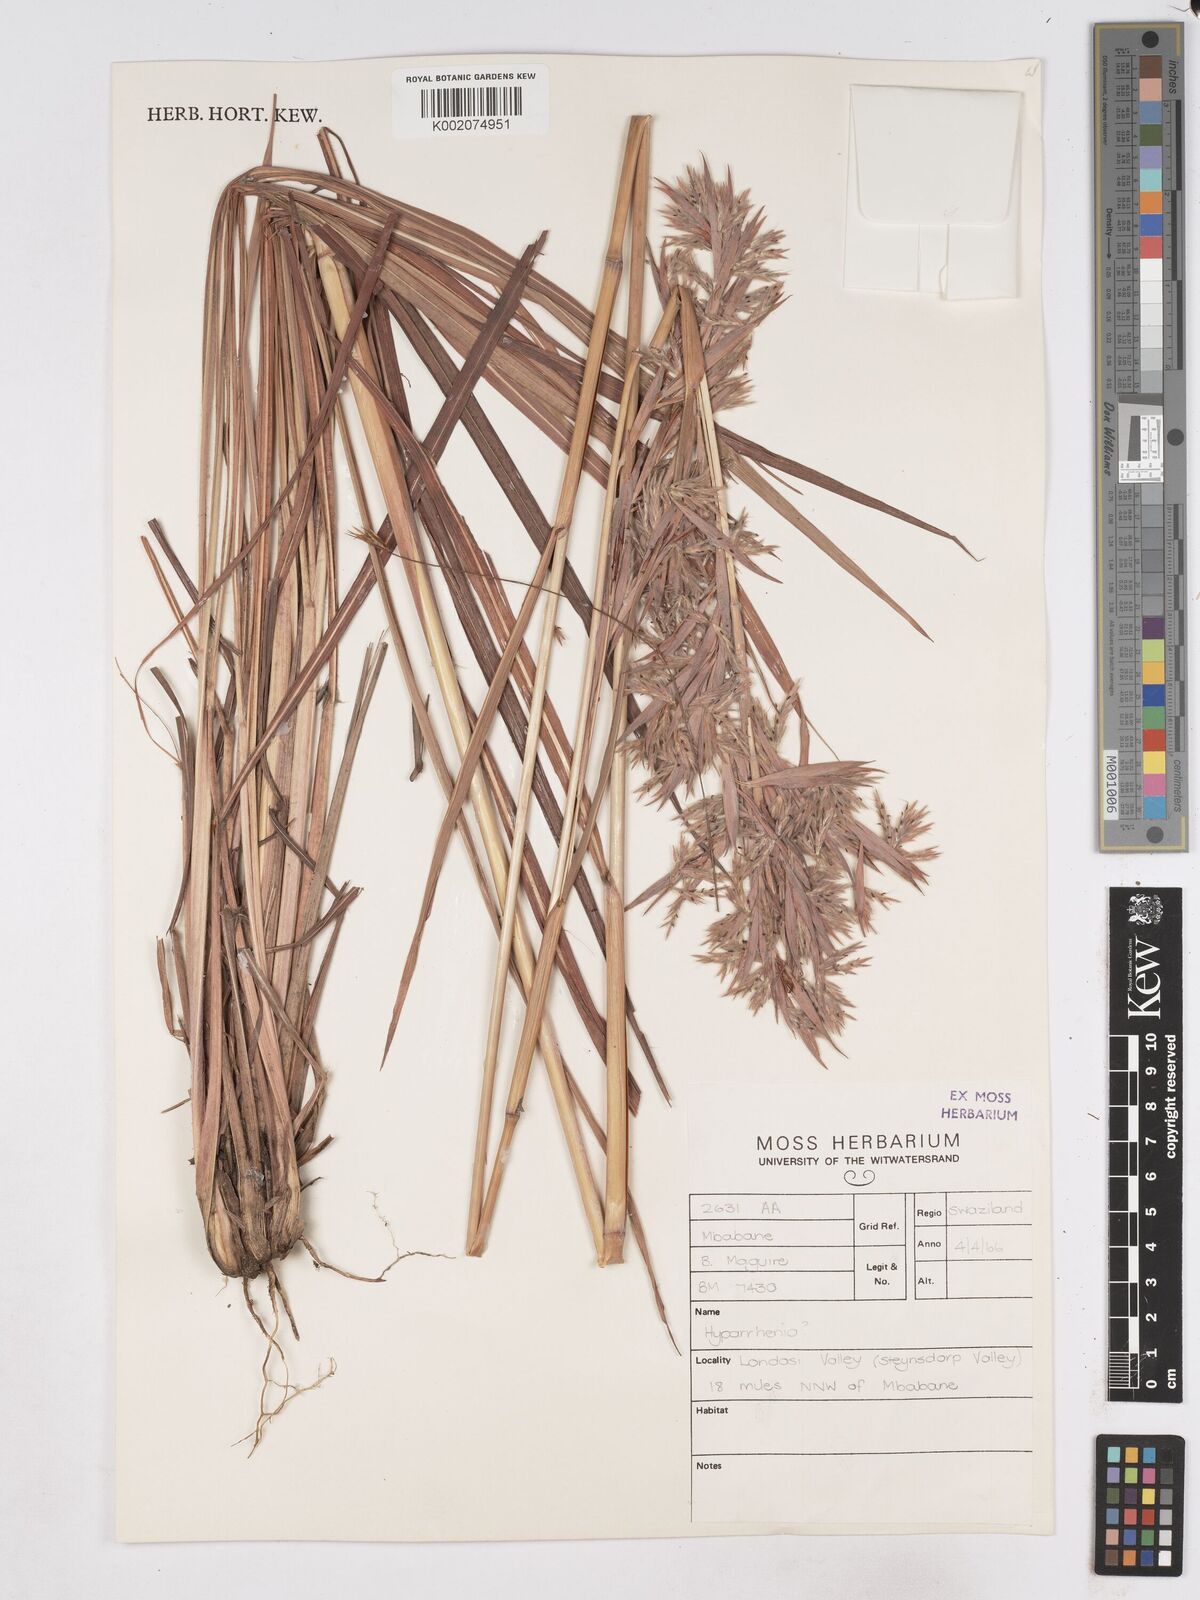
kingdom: Plantae
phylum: Tracheophyta
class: Liliopsida
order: Poales
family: Poaceae
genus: Hyparrhenia
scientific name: Hyparrhenia dregeana
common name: Silky thatching grass
